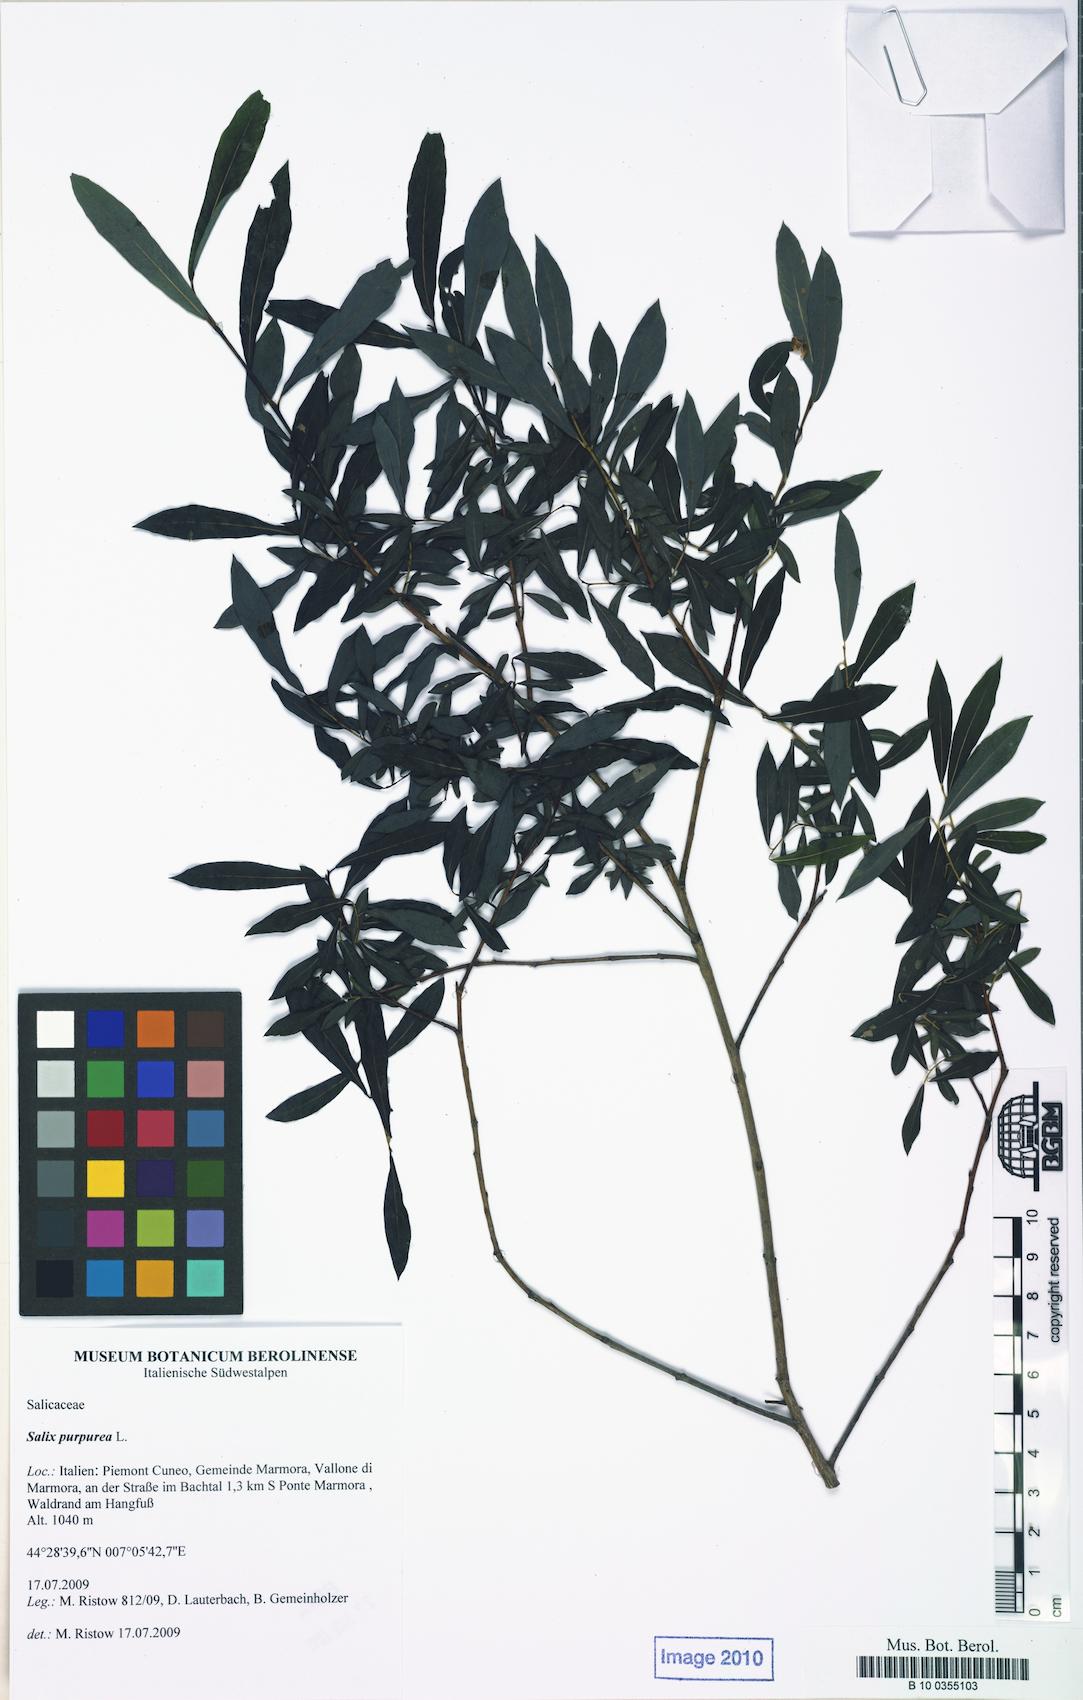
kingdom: Plantae
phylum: Tracheophyta
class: Magnoliopsida
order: Malpighiales
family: Salicaceae
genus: Salix
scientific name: Salix purpurea
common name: Purple willow
